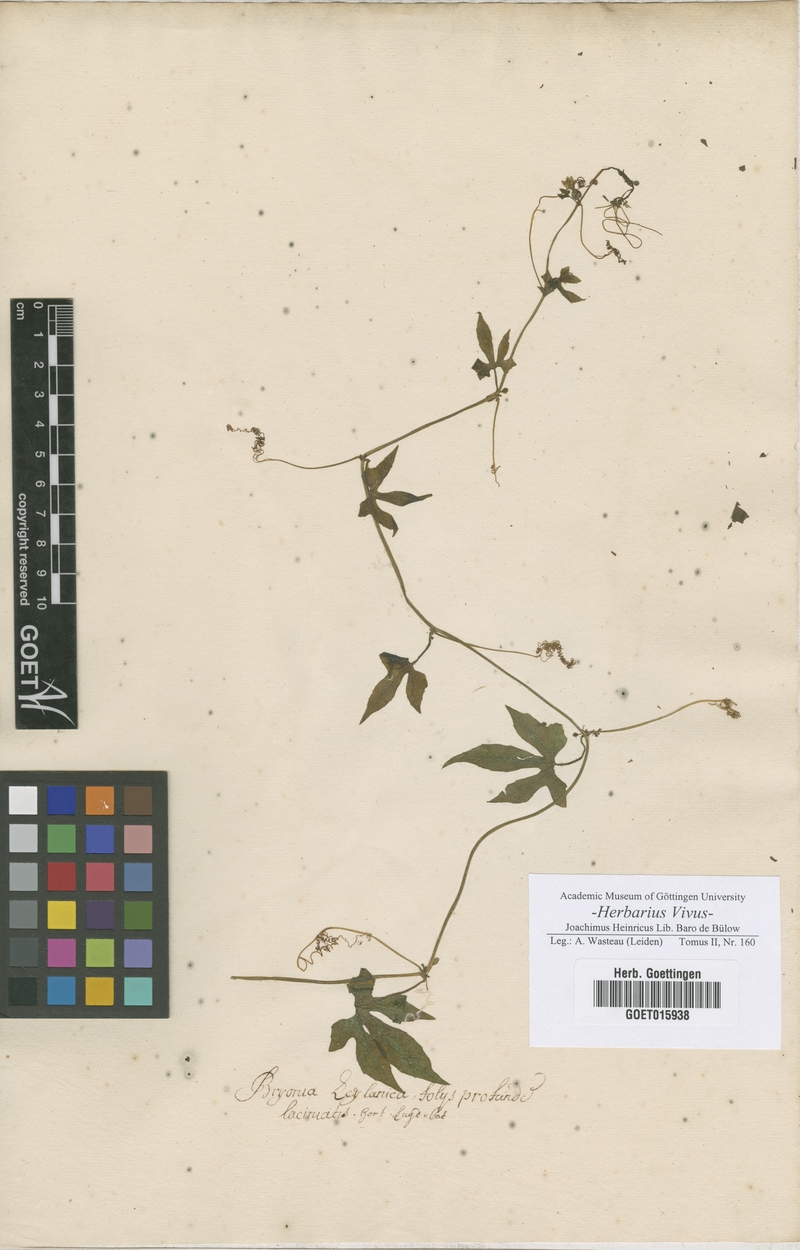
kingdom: Plantae
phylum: Tracheophyta
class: Magnoliopsida
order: Cucurbitales
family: Cucurbitaceae
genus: Bryonia
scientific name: Bryonia
